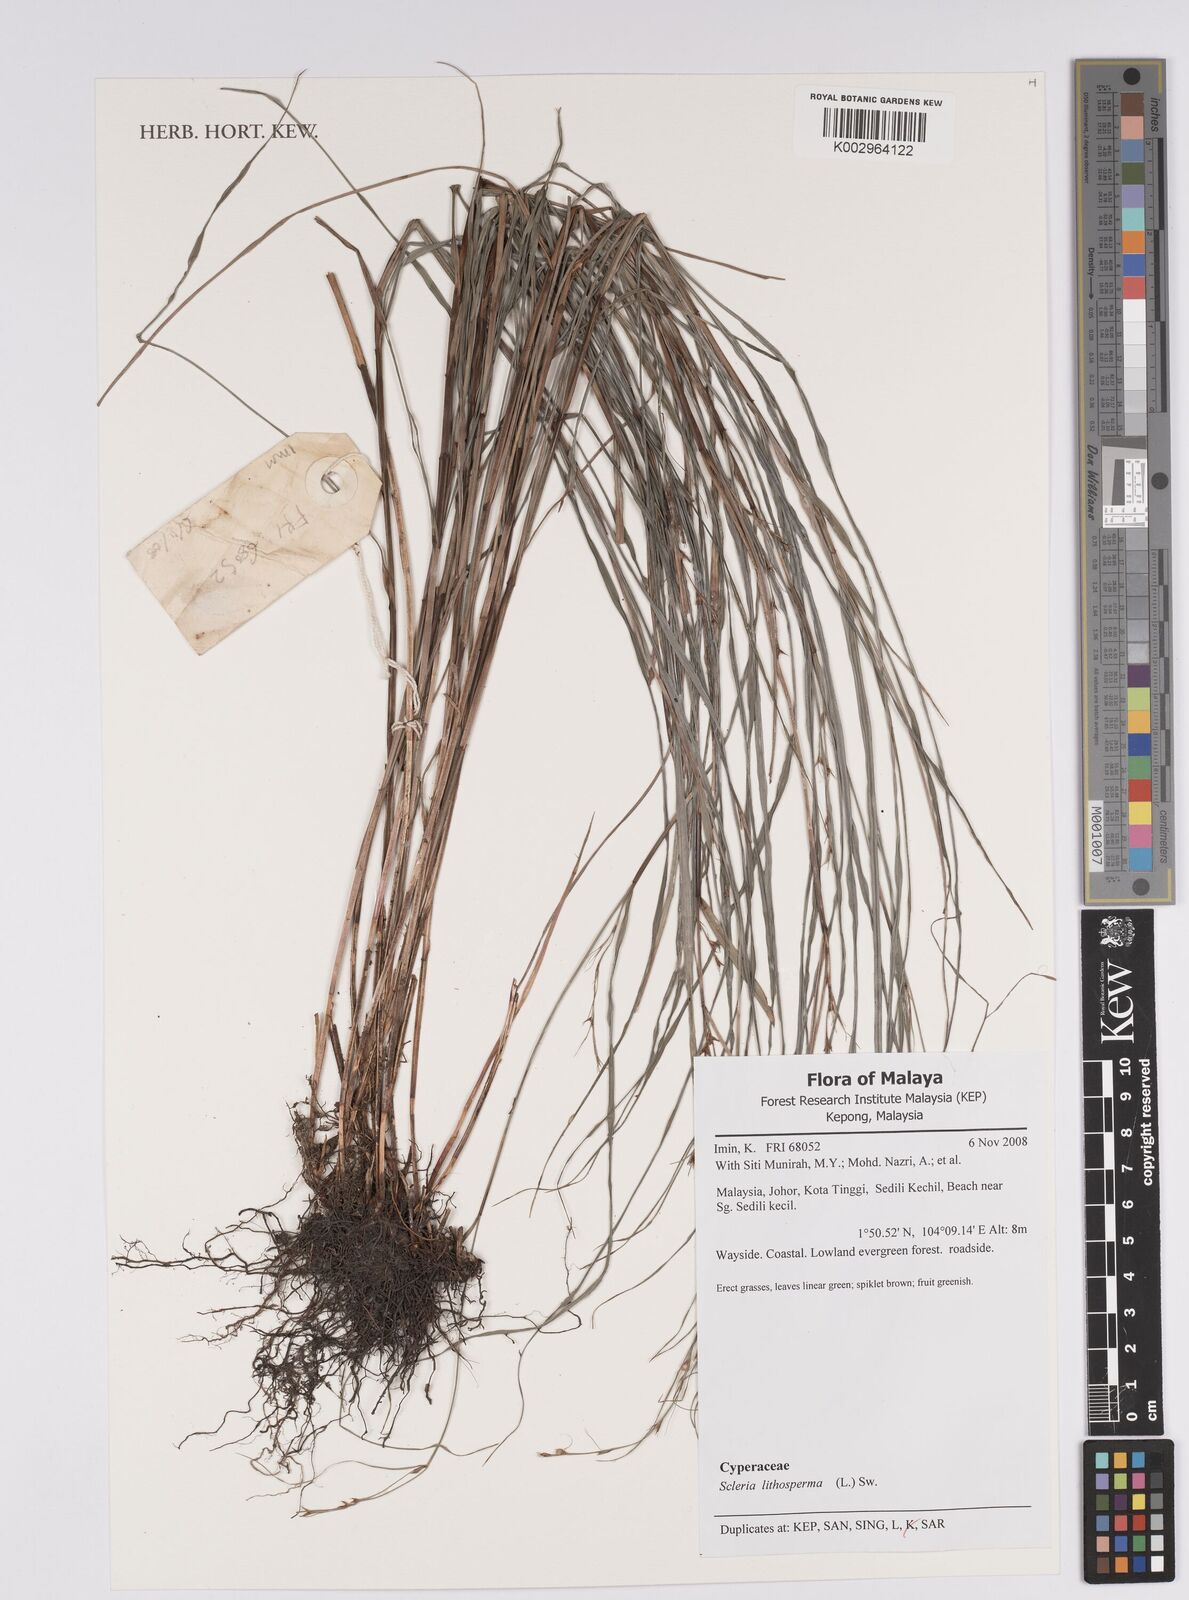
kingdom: Plantae
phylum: Tracheophyta
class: Liliopsida
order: Poales
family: Cyperaceae
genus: Scleria
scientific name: Scleria lithosperma
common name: Florida keys nut-rush
